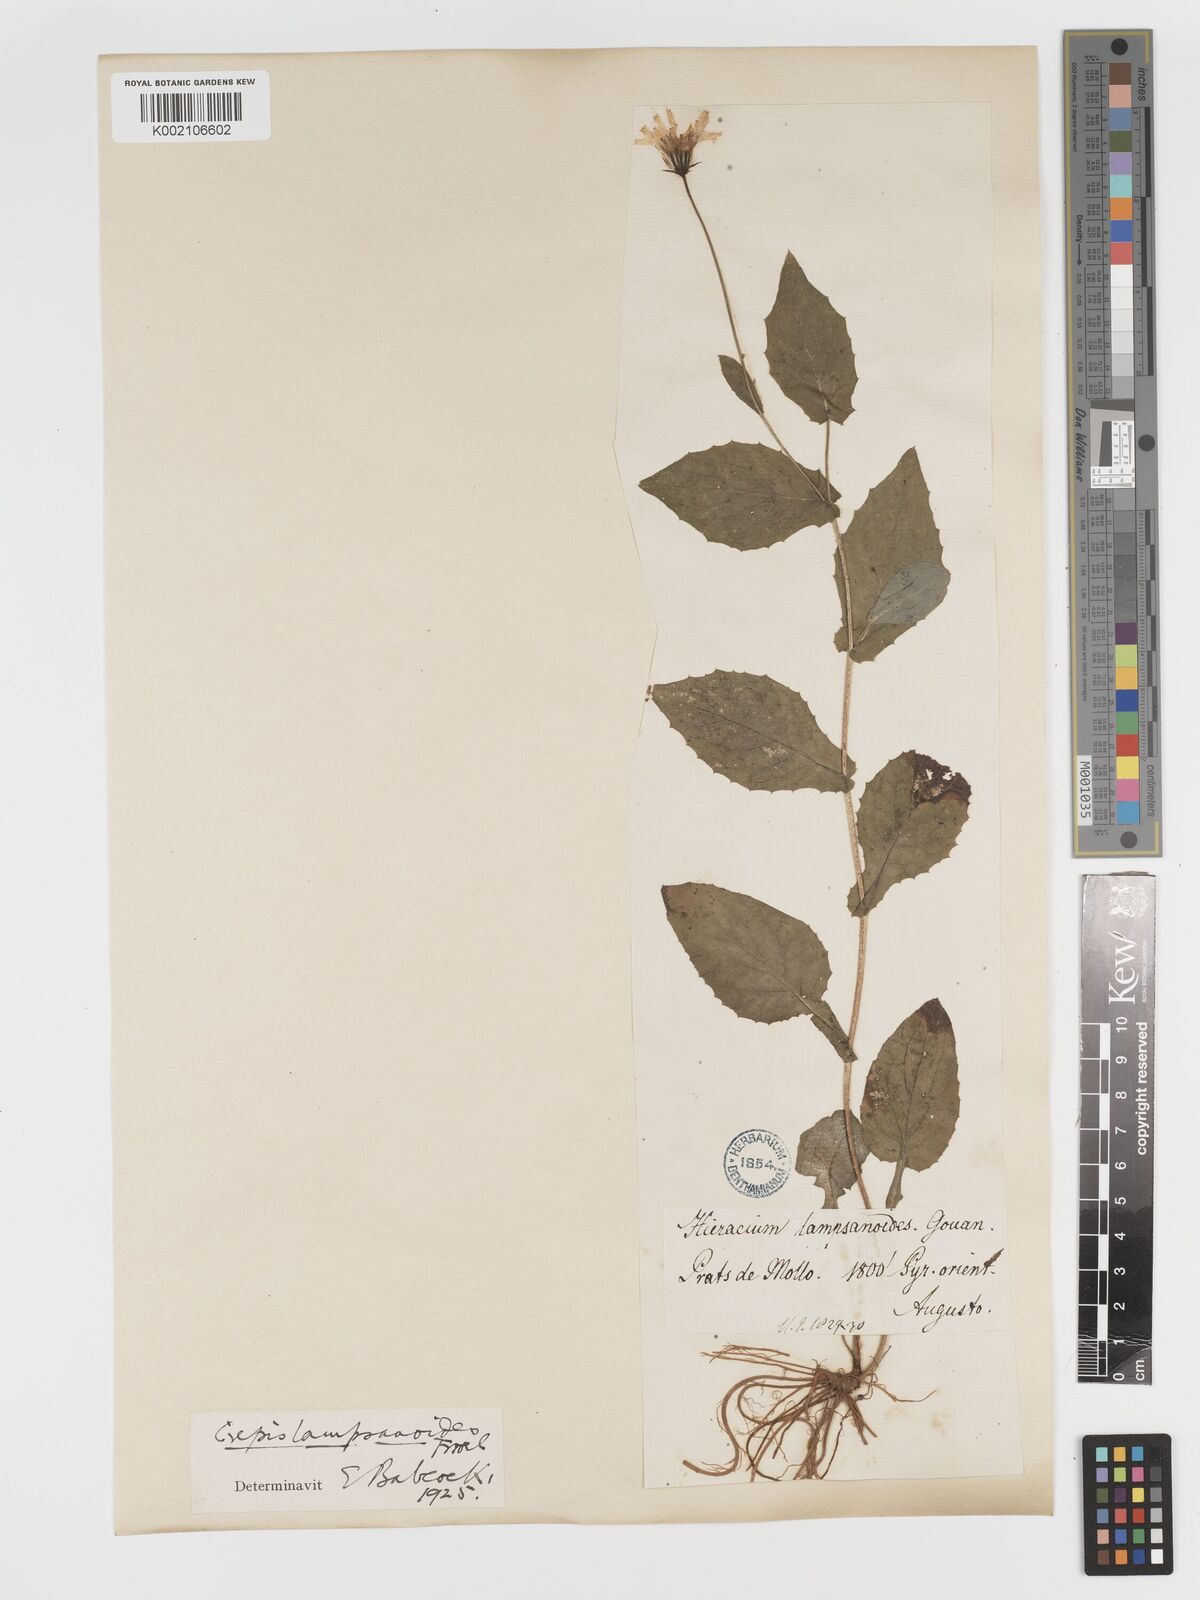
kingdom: Plantae
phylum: Tracheophyta
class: Magnoliopsida
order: Asterales
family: Asteraceae
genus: Crepis
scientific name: Crepis lampsanoides
